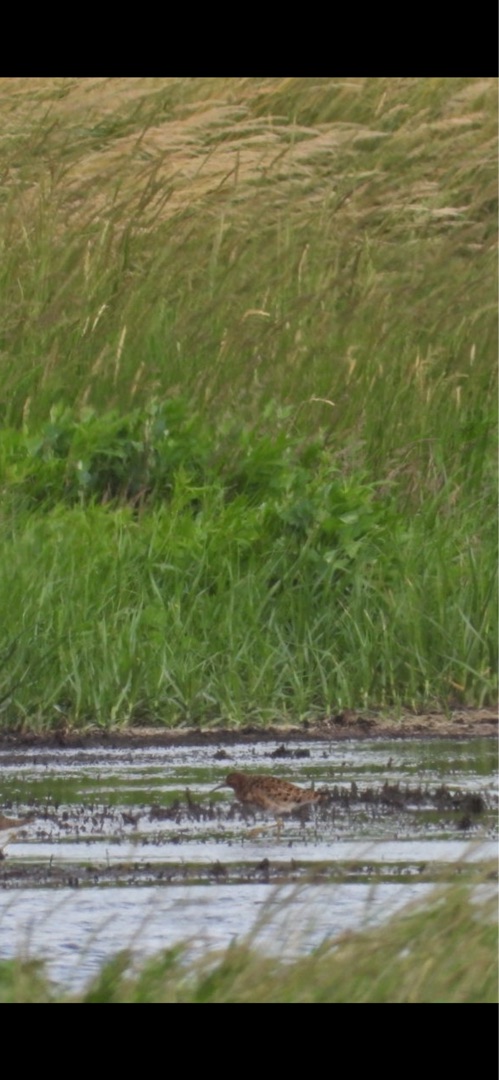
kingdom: Animalia
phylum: Chordata
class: Aves
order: Charadriiformes
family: Scolopacidae
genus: Calidris
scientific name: Calidris pugnax
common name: Brushane
